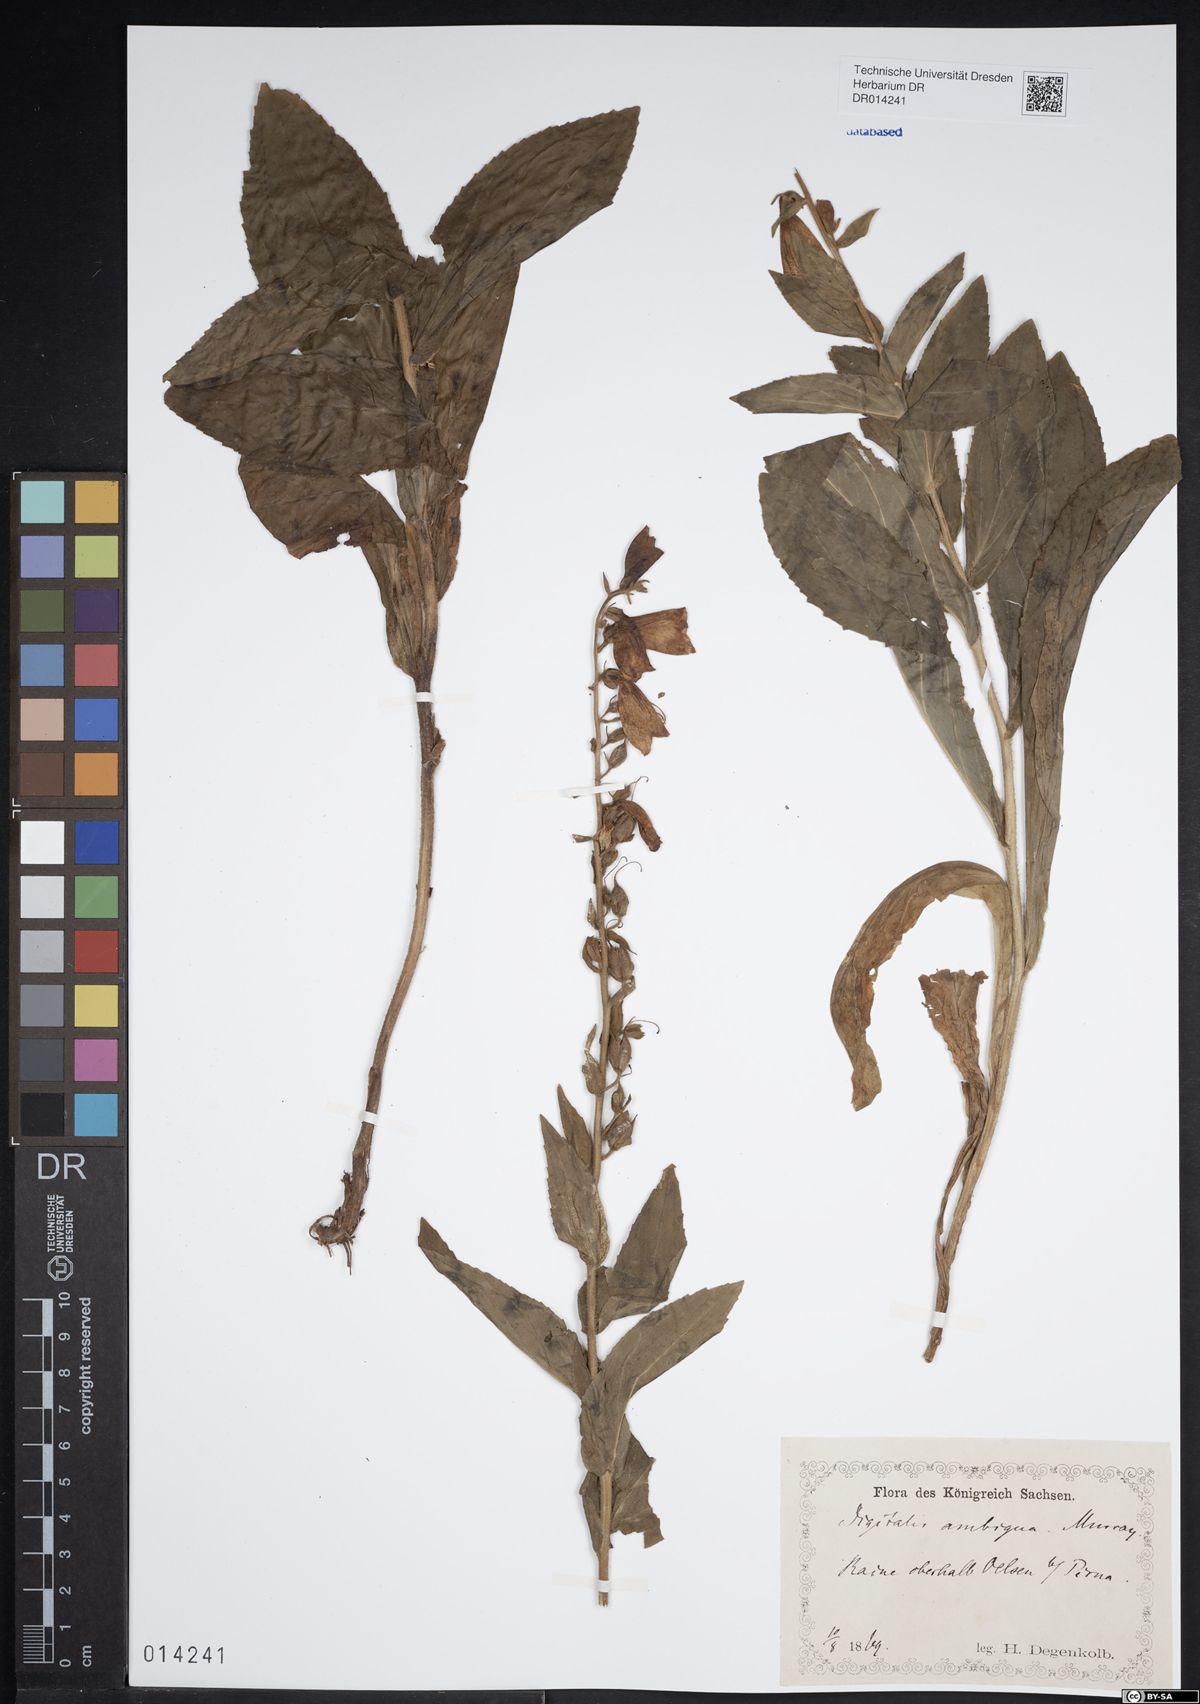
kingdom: Plantae
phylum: Tracheophyta
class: Magnoliopsida
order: Lamiales
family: Plantaginaceae
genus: Digitalis
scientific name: Digitalis grandiflora
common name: Yellow foxglove
